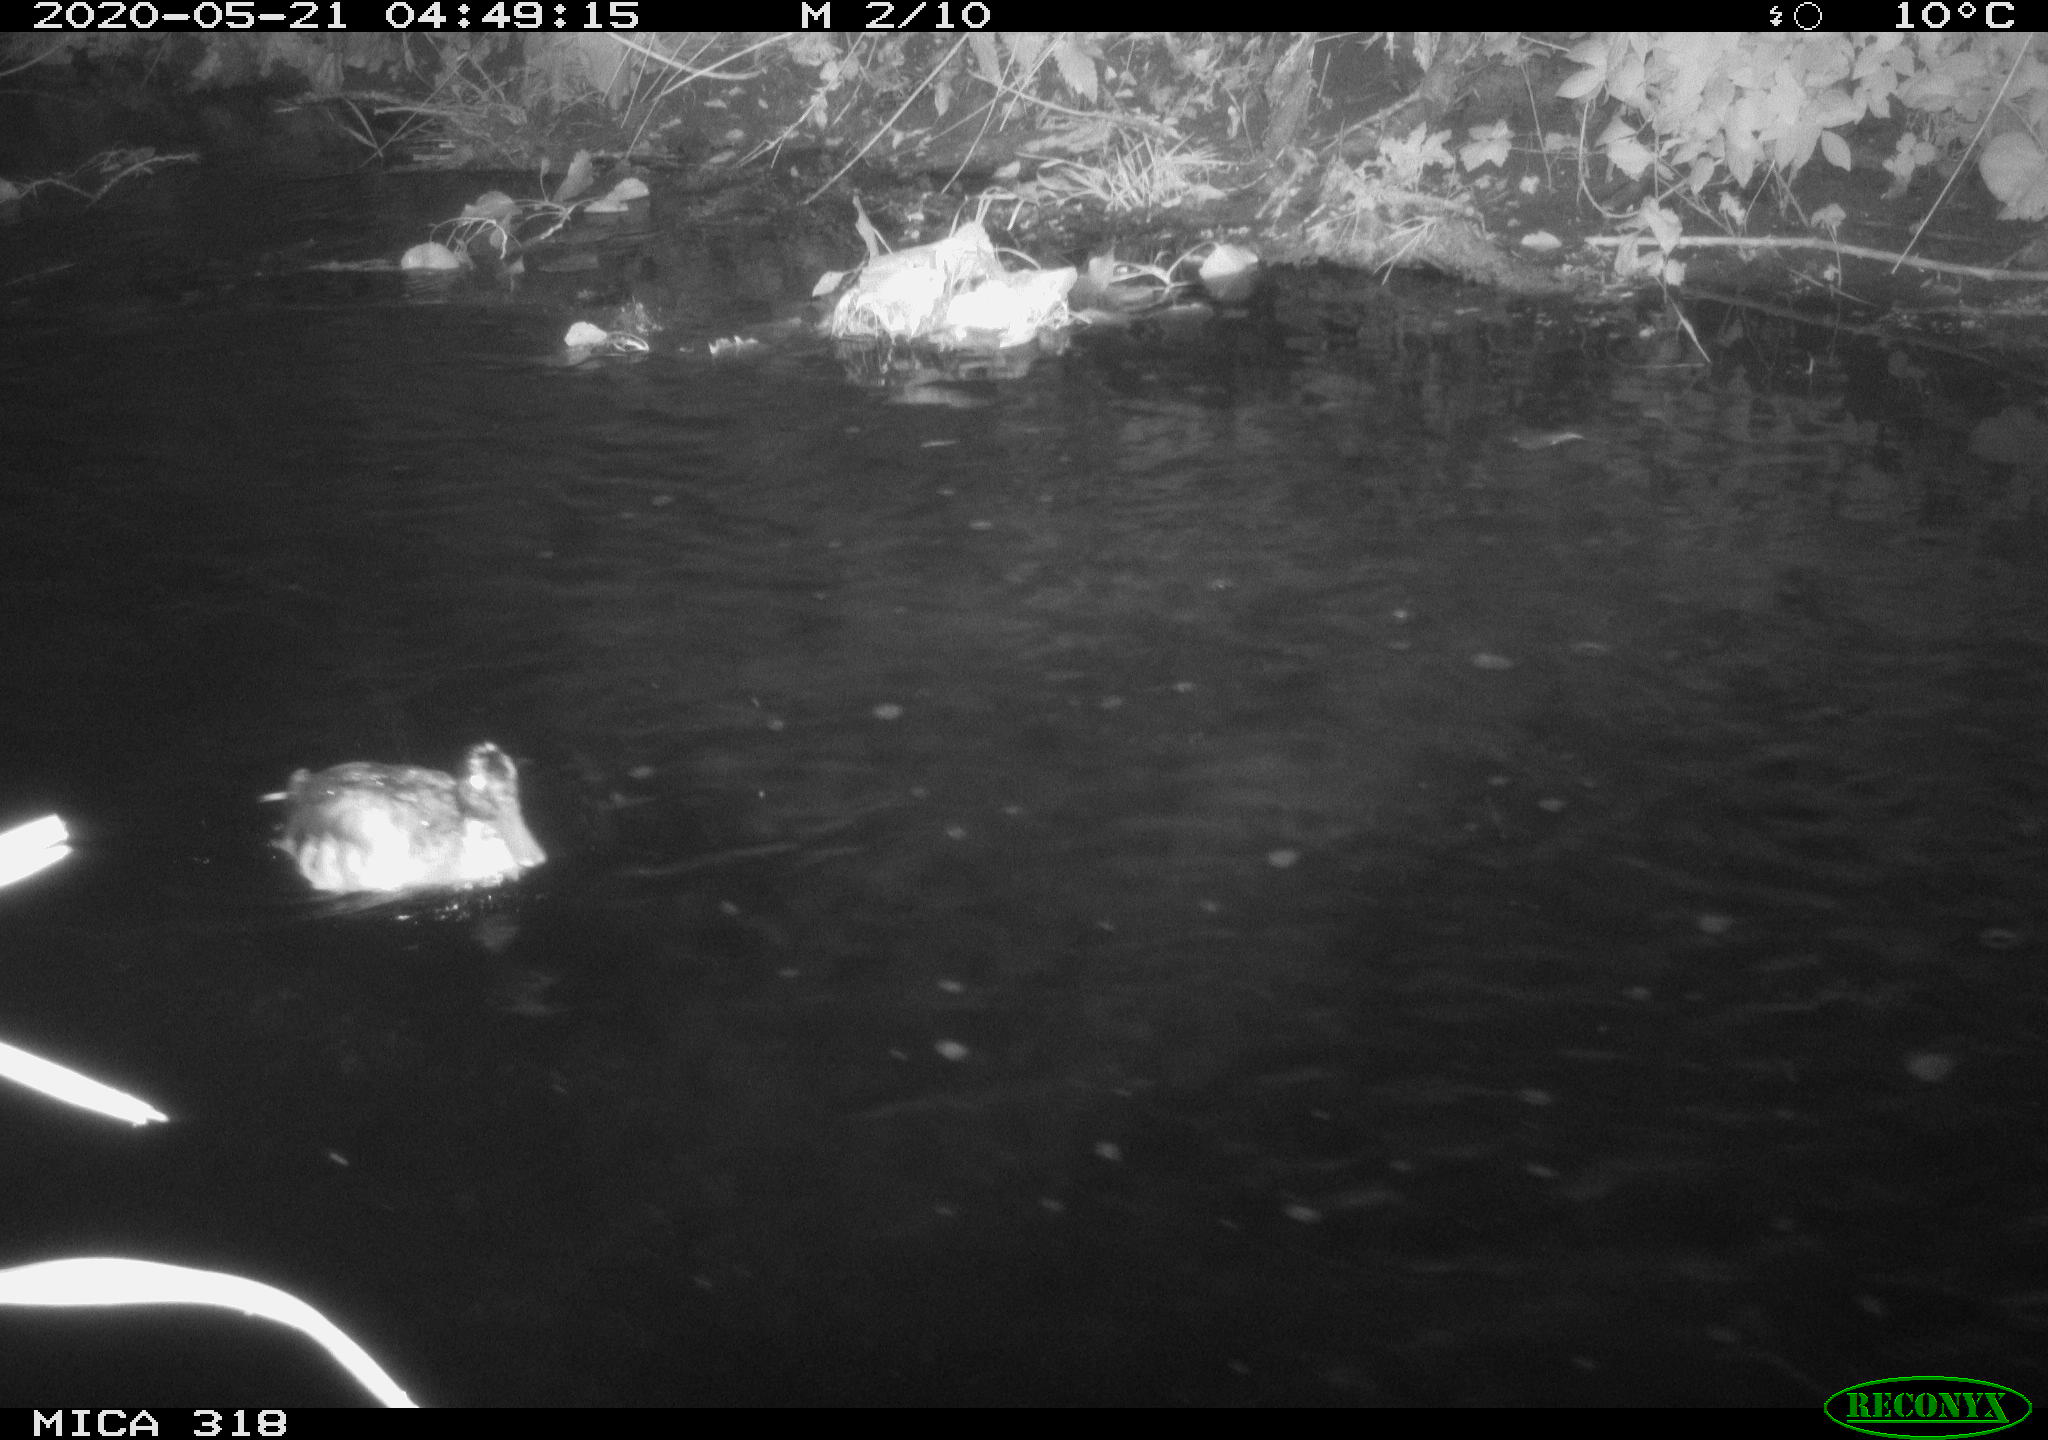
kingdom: Animalia
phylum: Chordata
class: Aves
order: Anseriformes
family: Anatidae
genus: Anas
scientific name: Anas platyrhynchos
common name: Mallard
